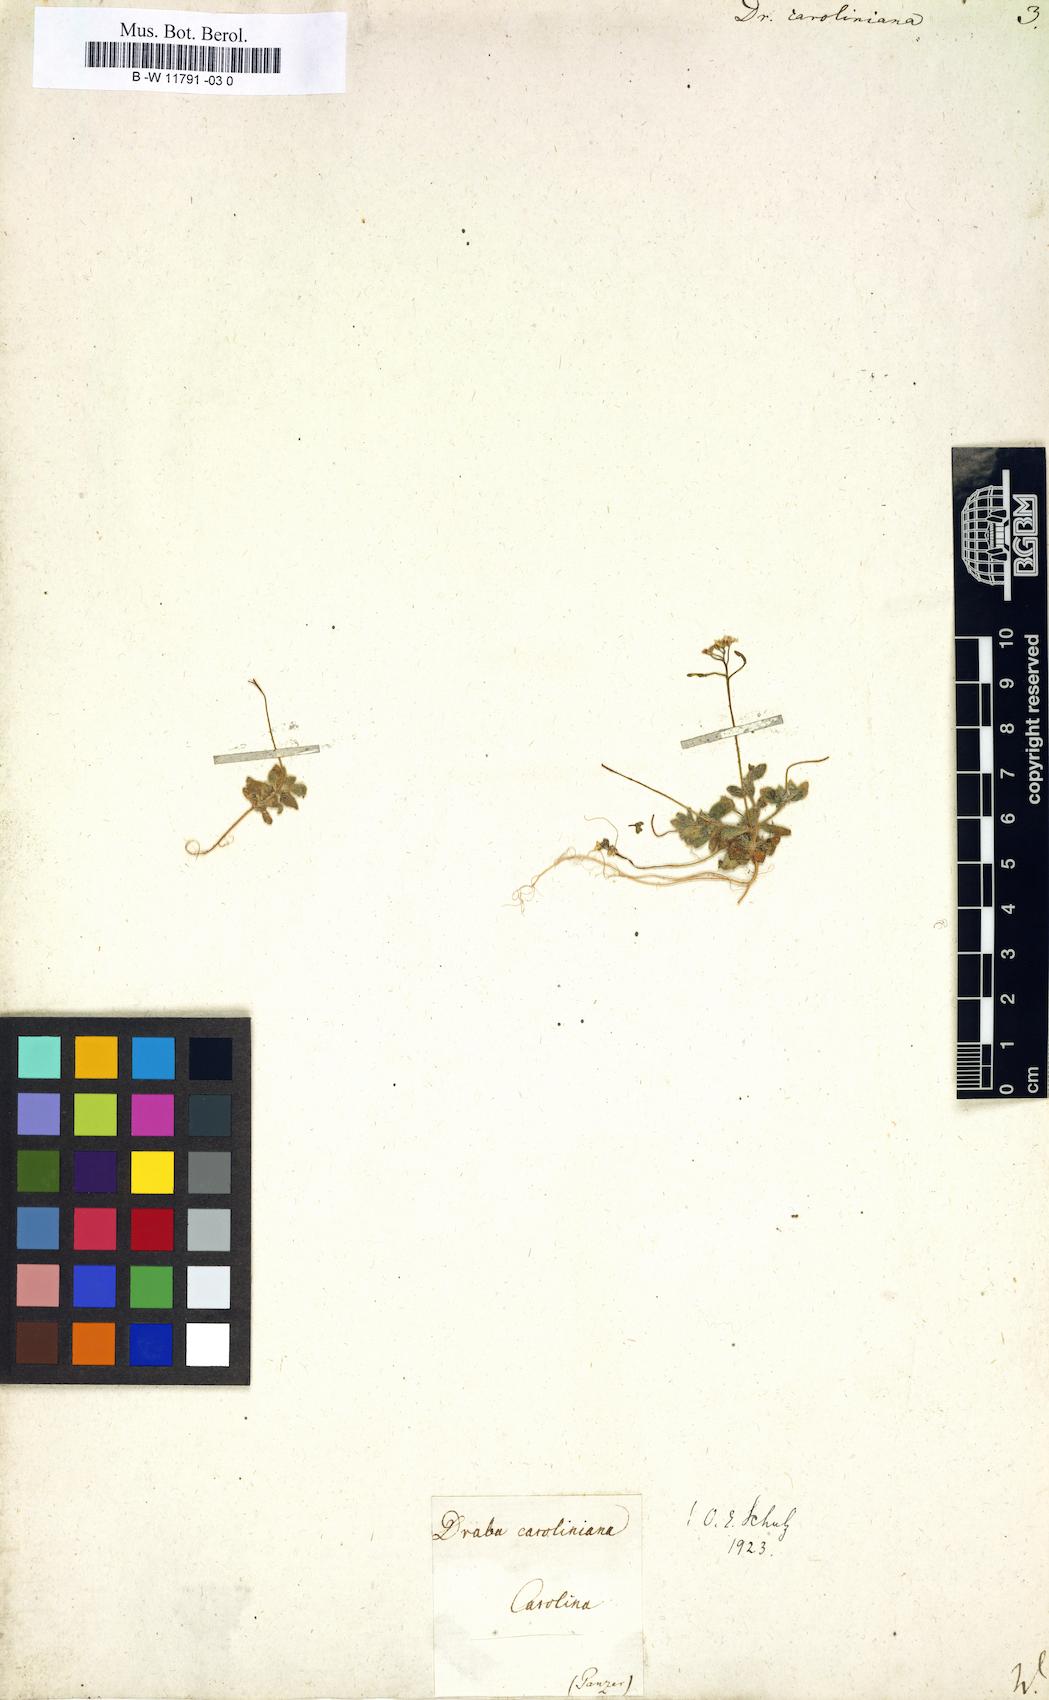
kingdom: Plantae
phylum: Tracheophyta
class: Magnoliopsida
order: Brassicales
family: Brassicaceae
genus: Tomostima
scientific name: Tomostima reptans
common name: Carolina draba
